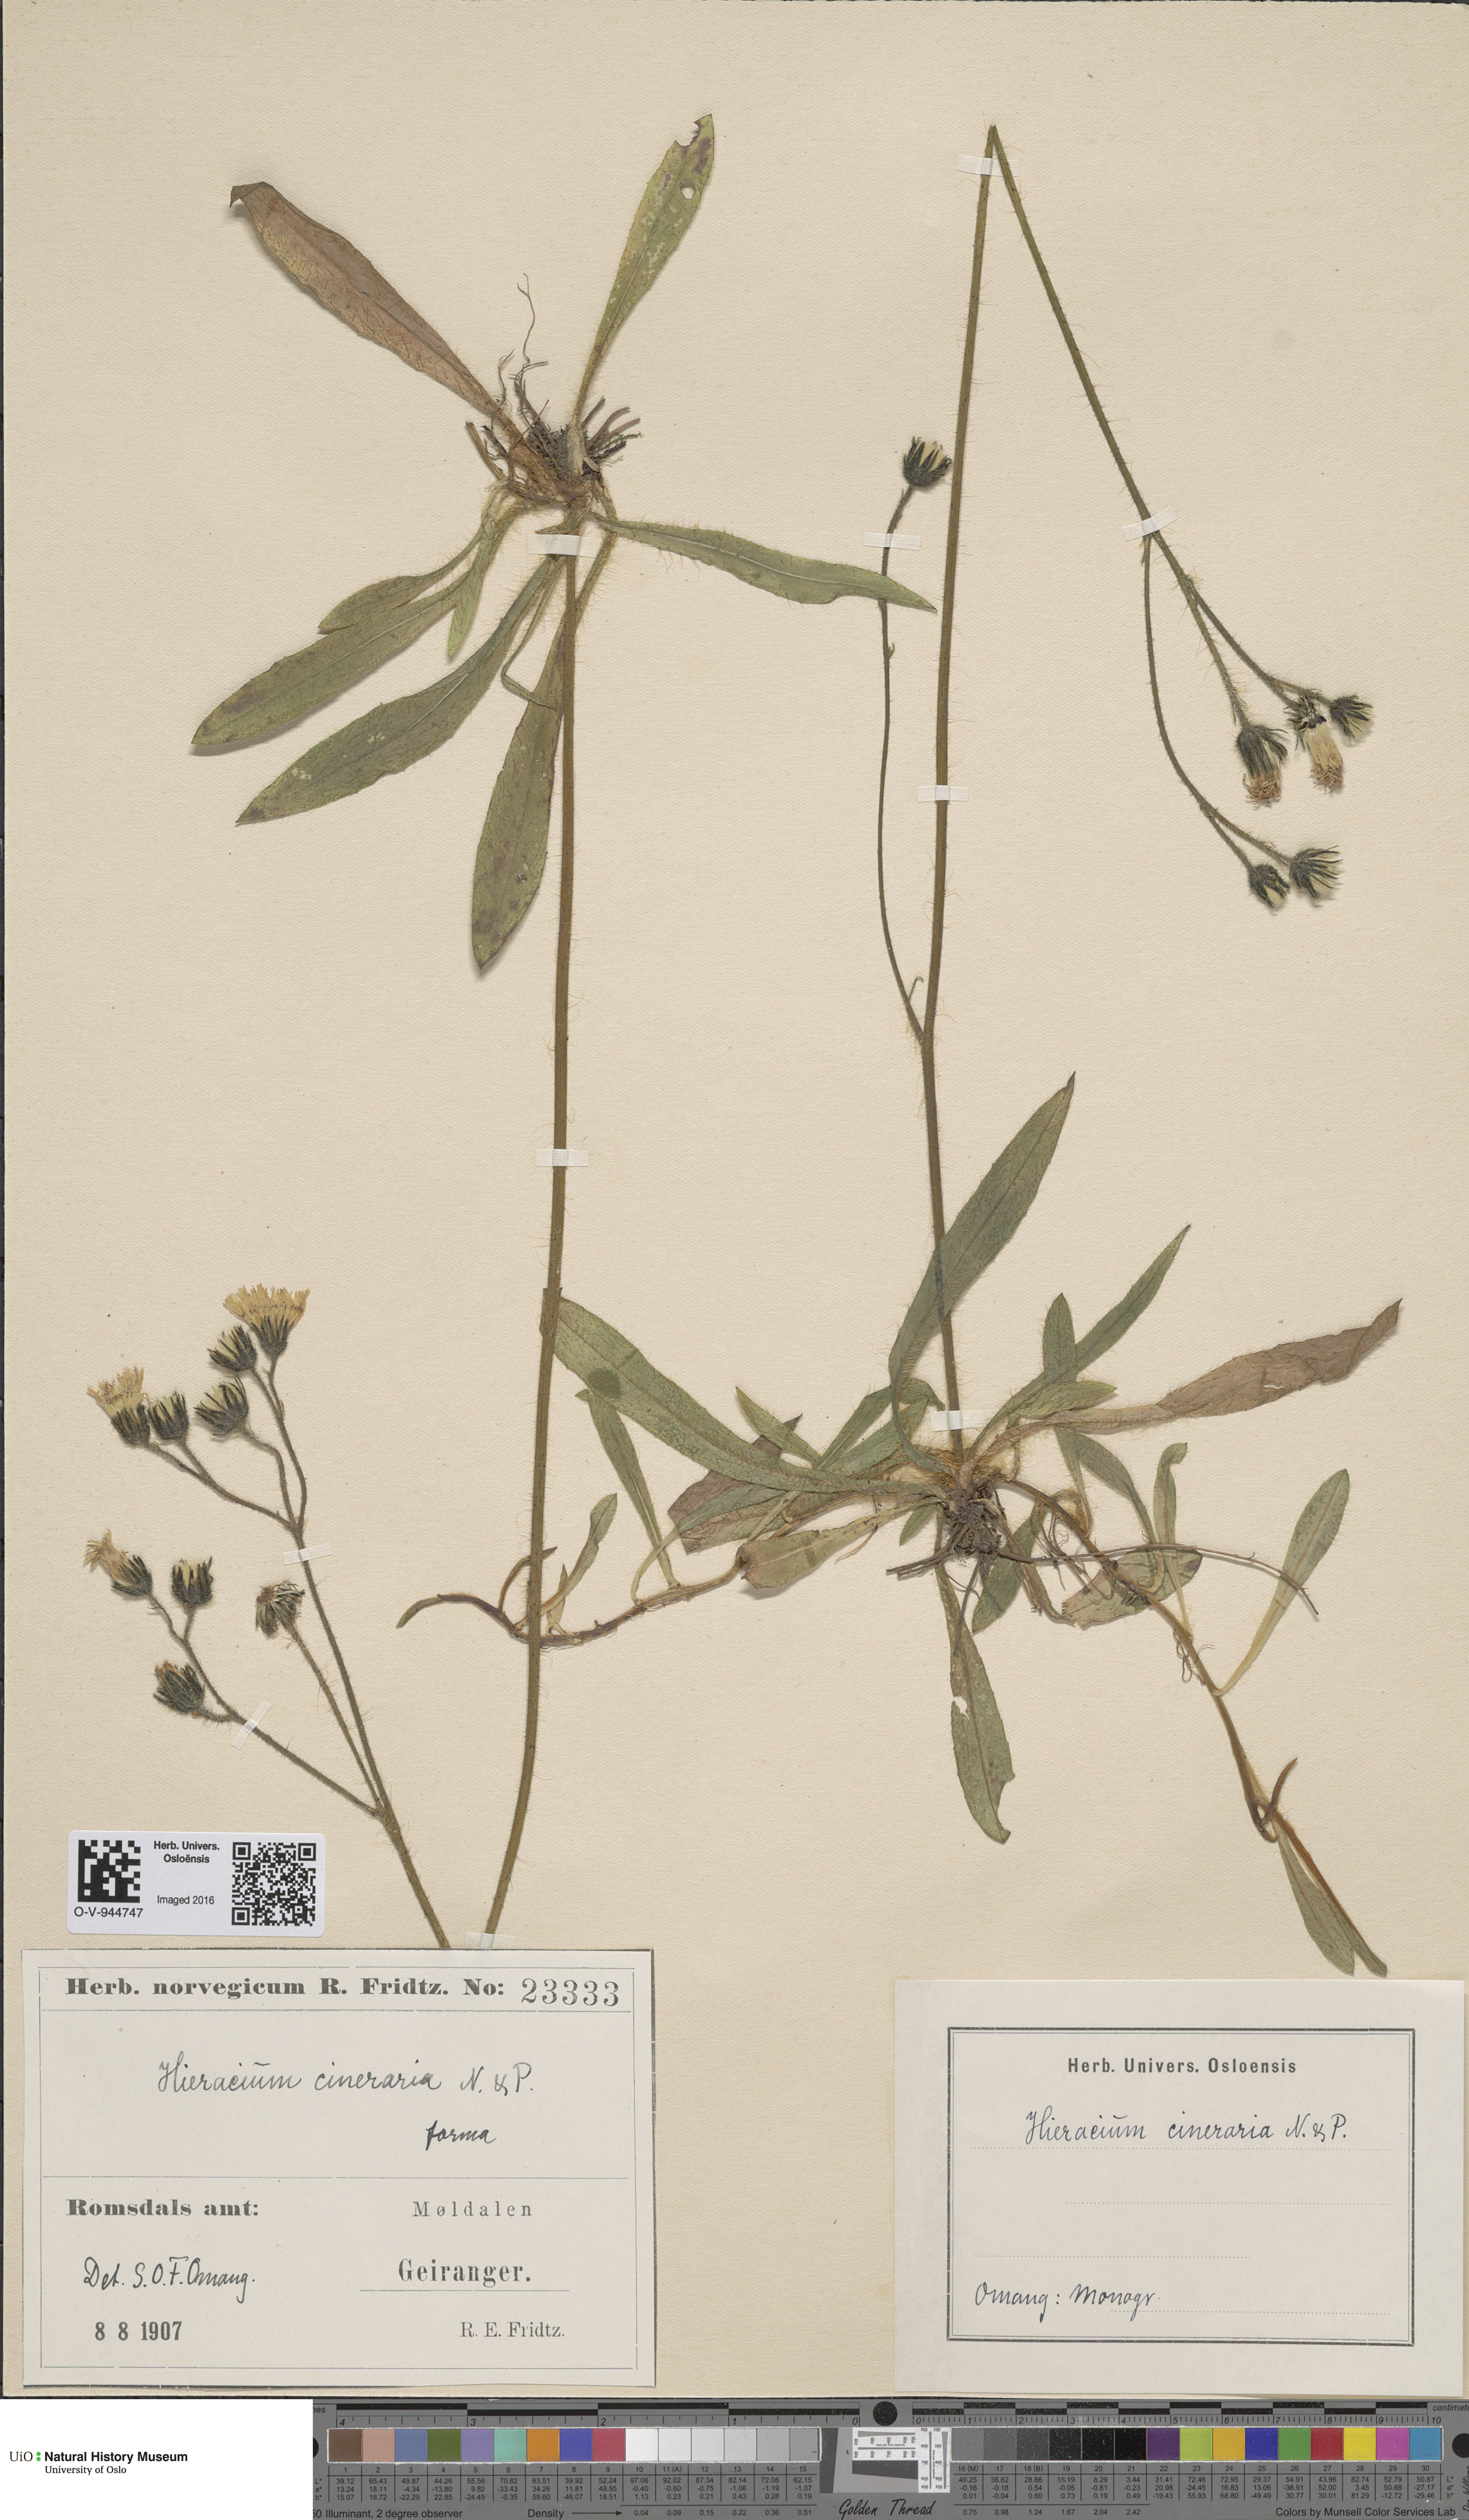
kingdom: Plantae
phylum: Tracheophyta
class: Magnoliopsida
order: Asterales
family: Asteraceae
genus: Pilosella
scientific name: Pilosella moechiadia
